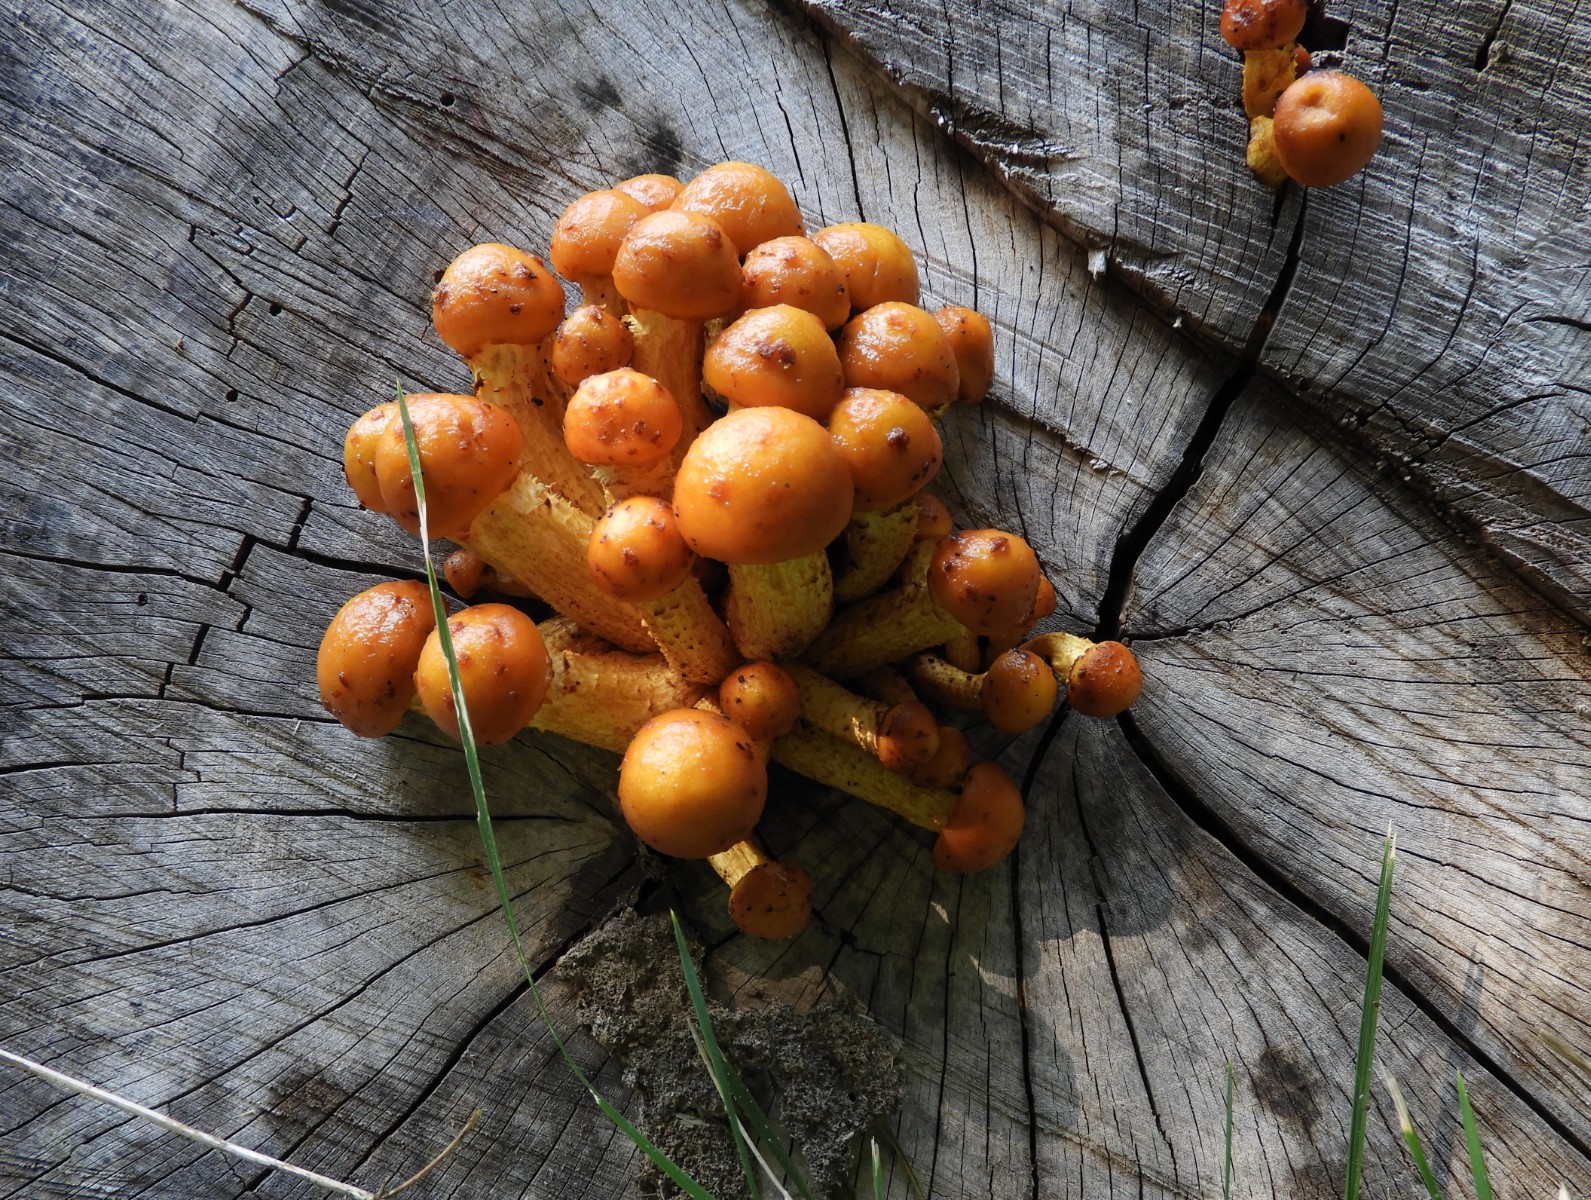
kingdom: Fungi
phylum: Basidiomycota
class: Agaricomycetes
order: Agaricales
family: Strophariaceae
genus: Pholiota
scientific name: Pholiota adiposa
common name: højtsiddende skælhat
